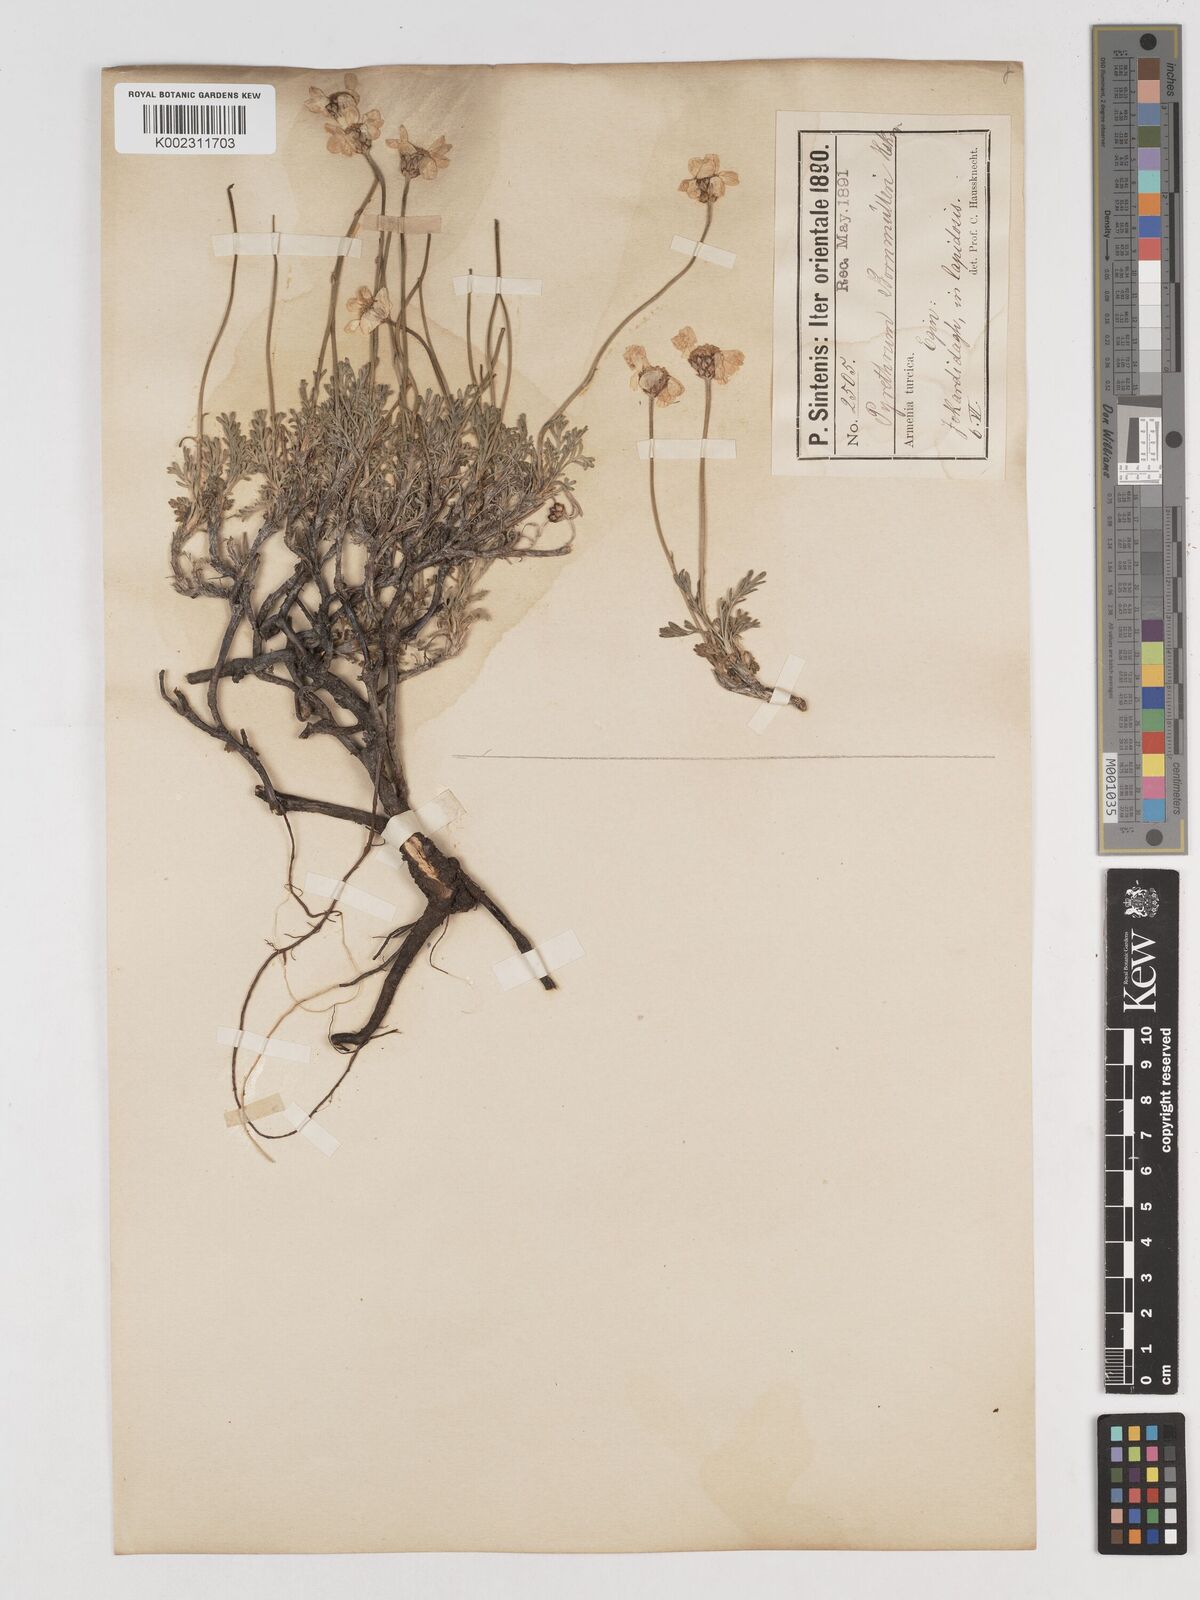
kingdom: Plantae
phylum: Tracheophyta
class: Magnoliopsida
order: Asterales
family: Asteraceae
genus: Tanacetum
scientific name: Tanacetum coccineum
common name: Pyrethum daisy
